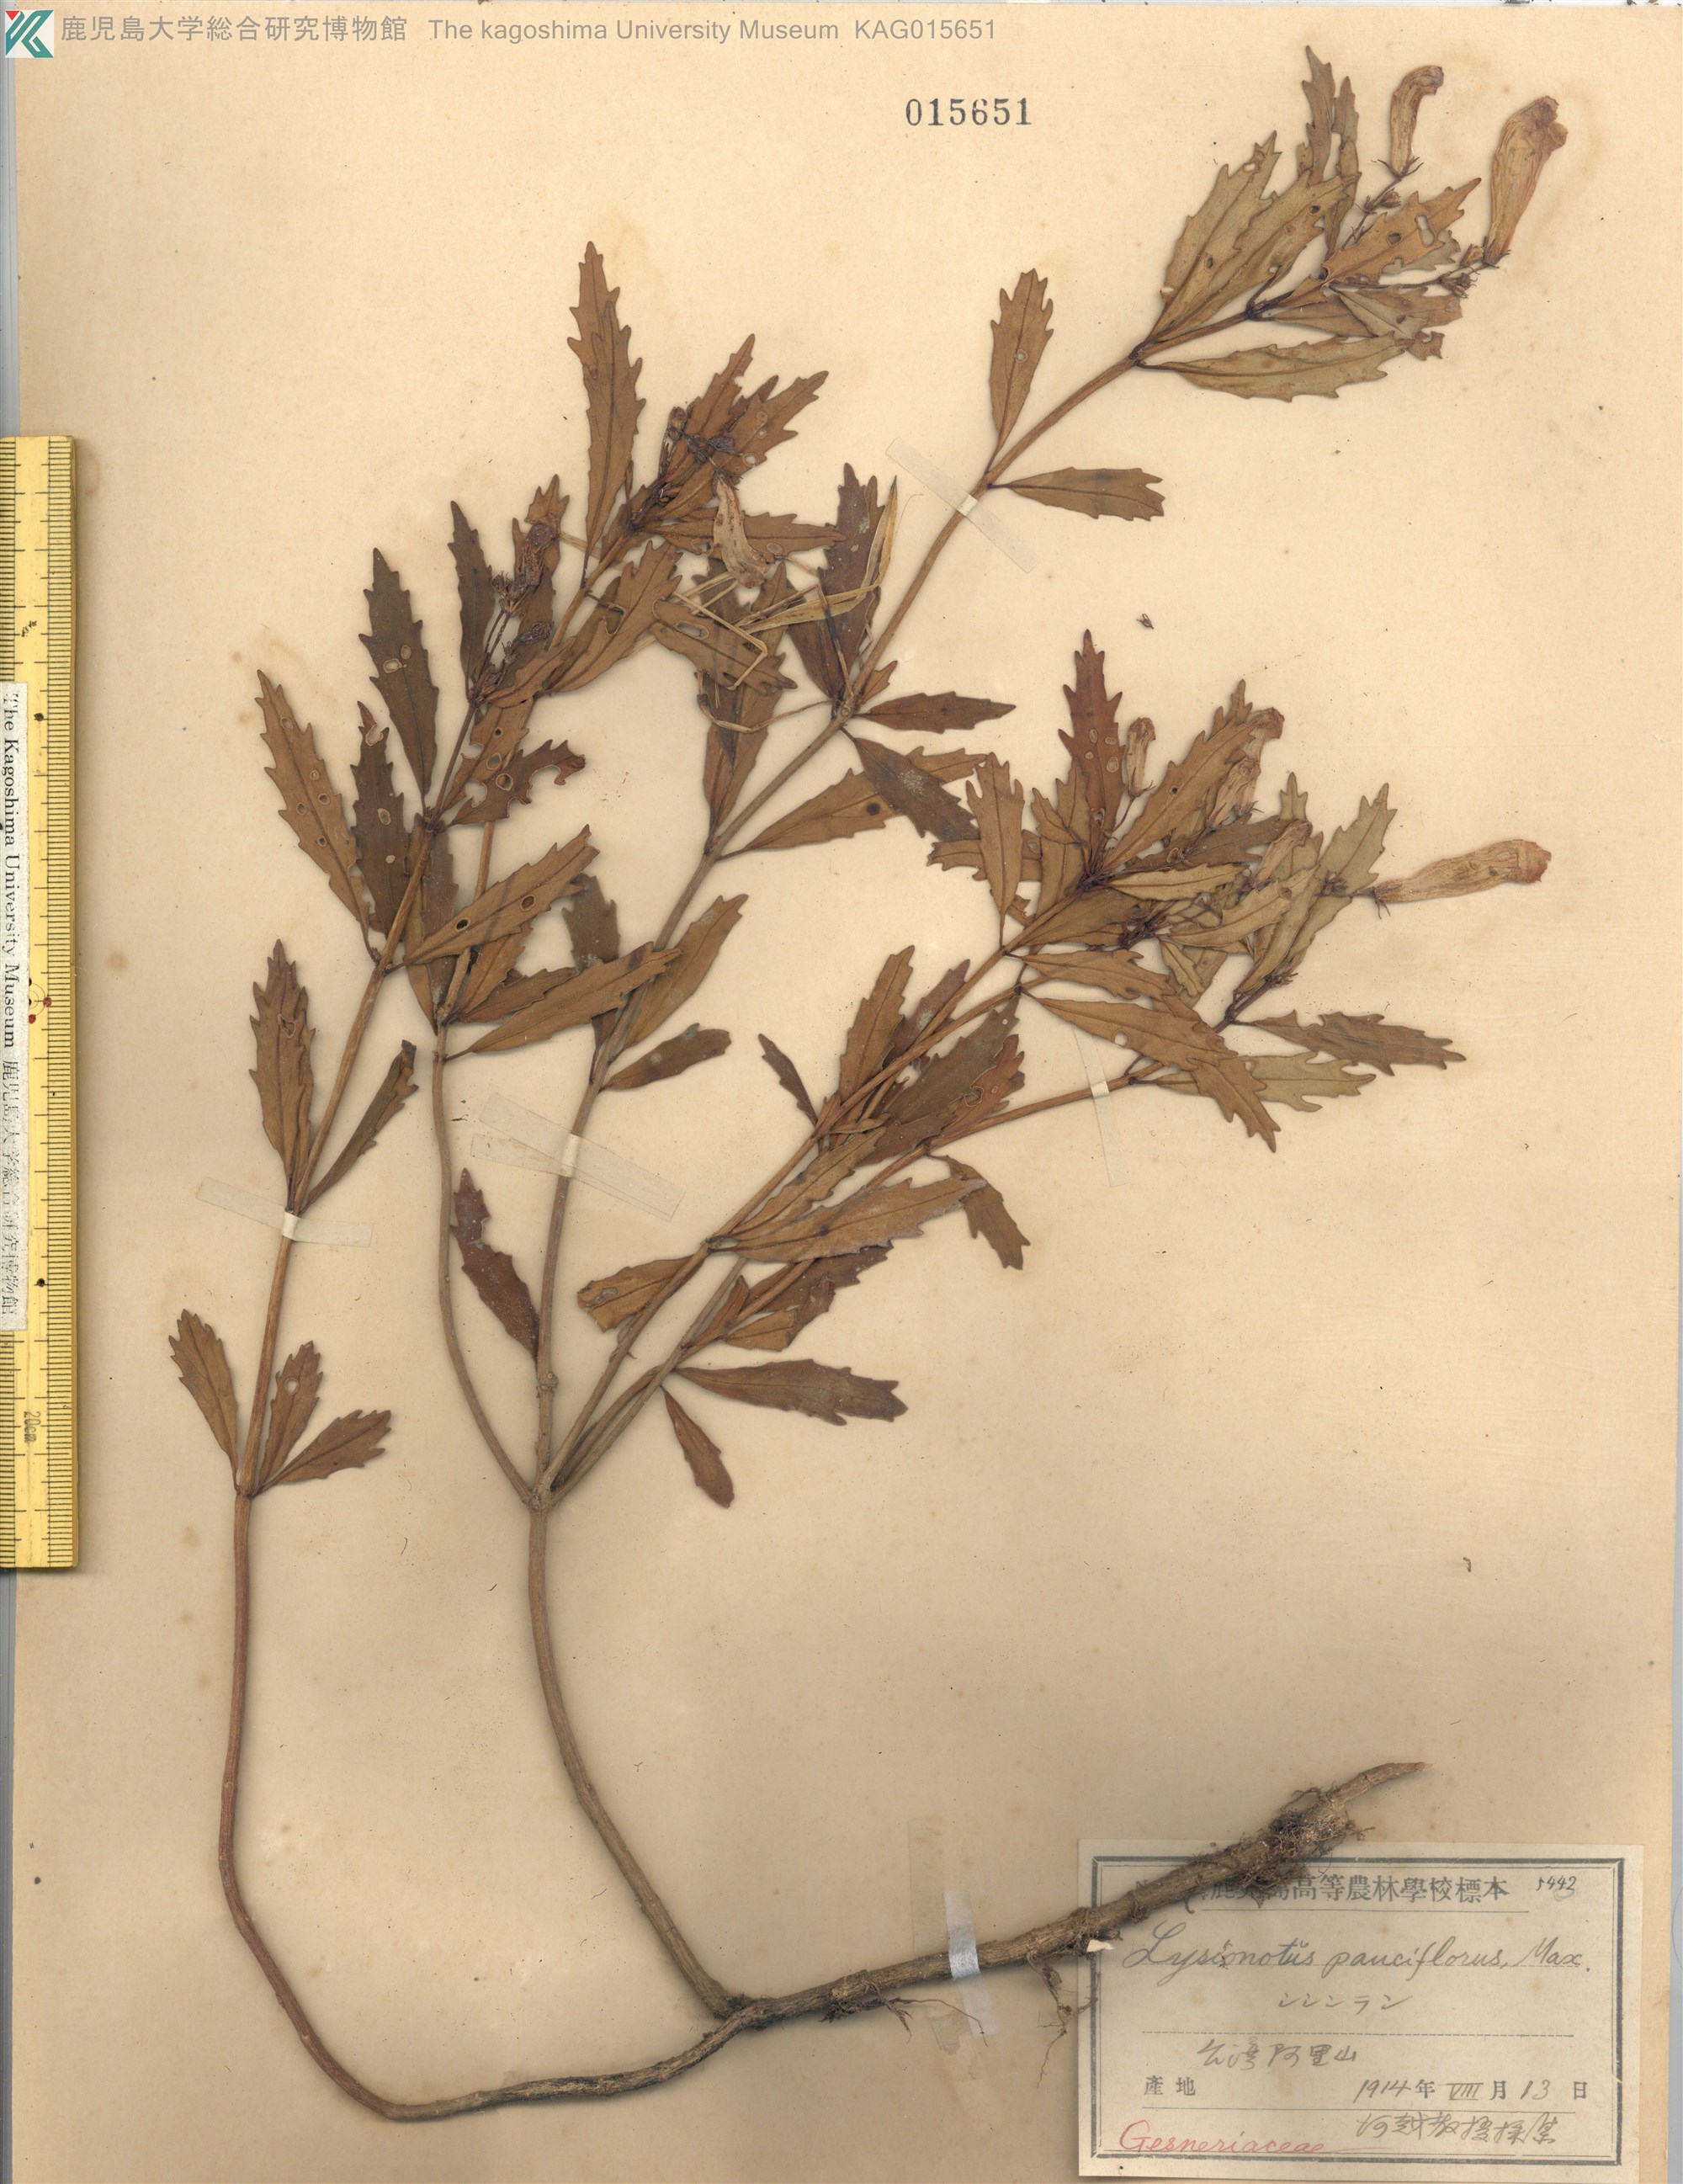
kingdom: Plantae
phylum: Tracheophyta
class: Magnoliopsida
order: Lamiales
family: Gesneriaceae
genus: Lysionotus
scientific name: Lysionotus pauciflorus
